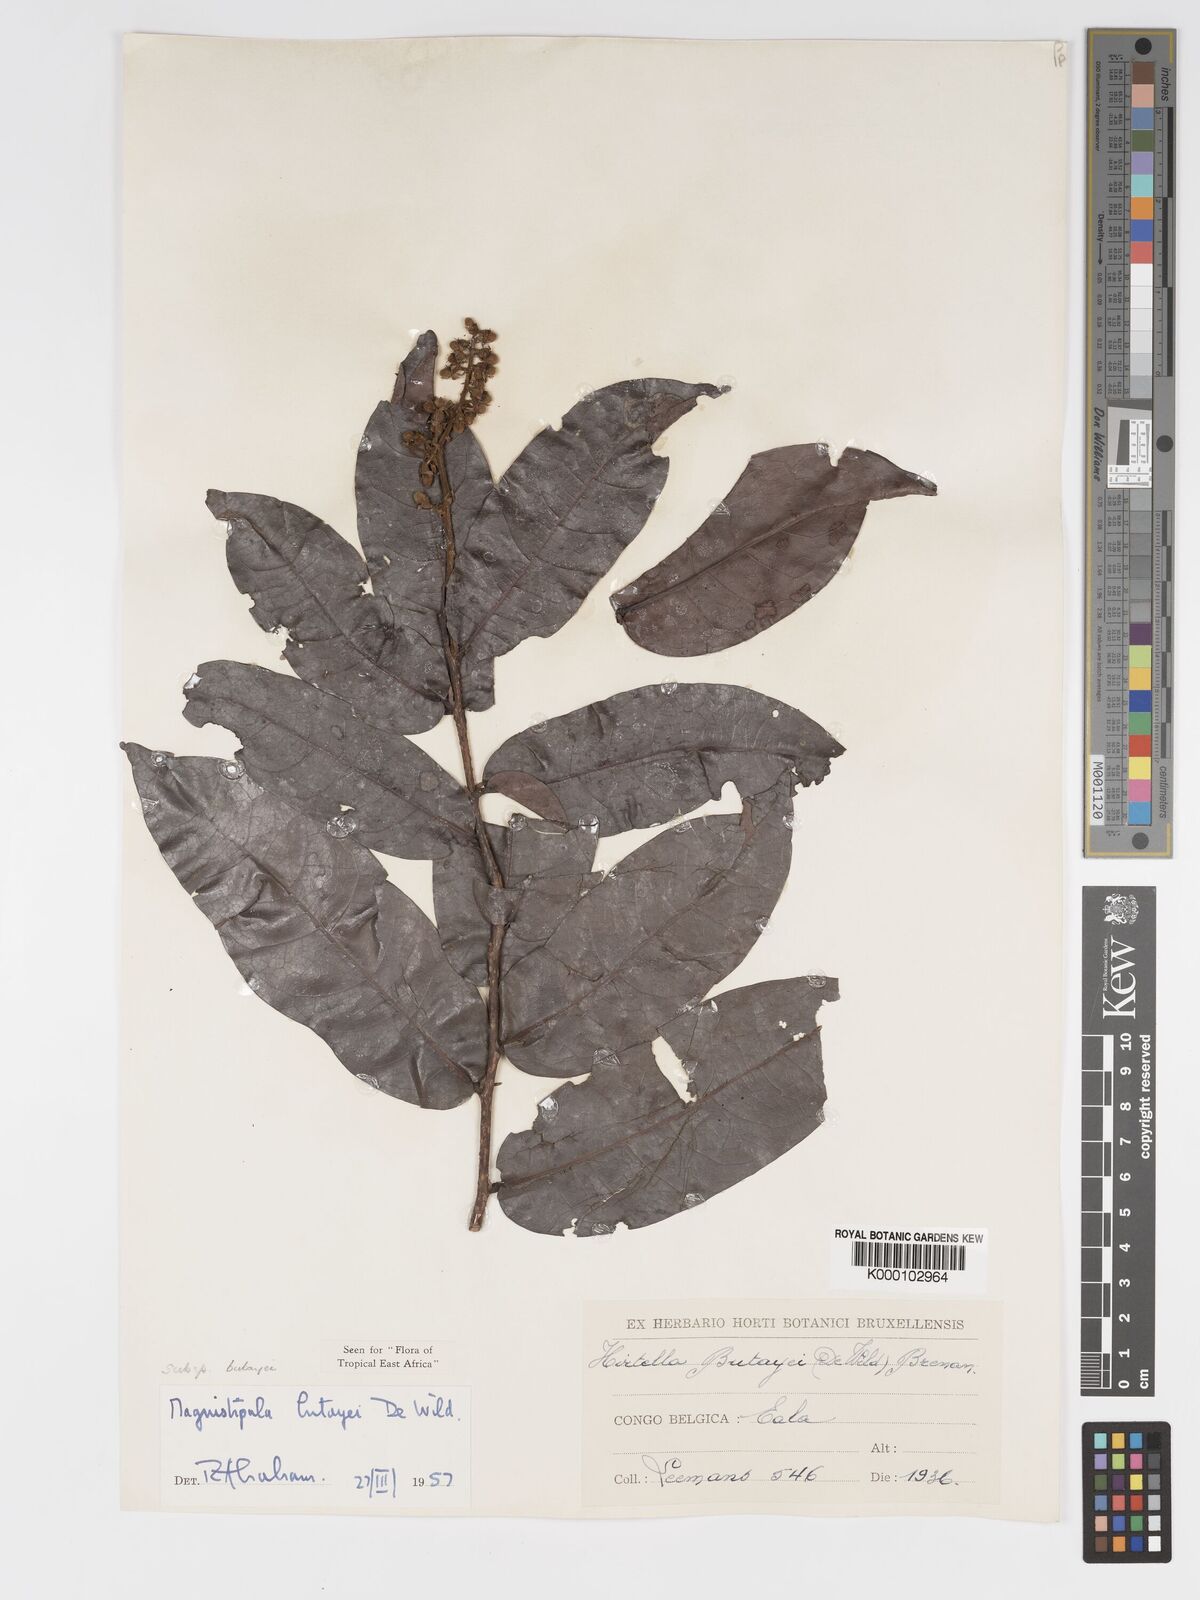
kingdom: Plantae
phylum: Tracheophyta
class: Magnoliopsida
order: Malpighiales
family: Chrysobalanaceae
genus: Magnistipula
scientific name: Magnistipula butayei
